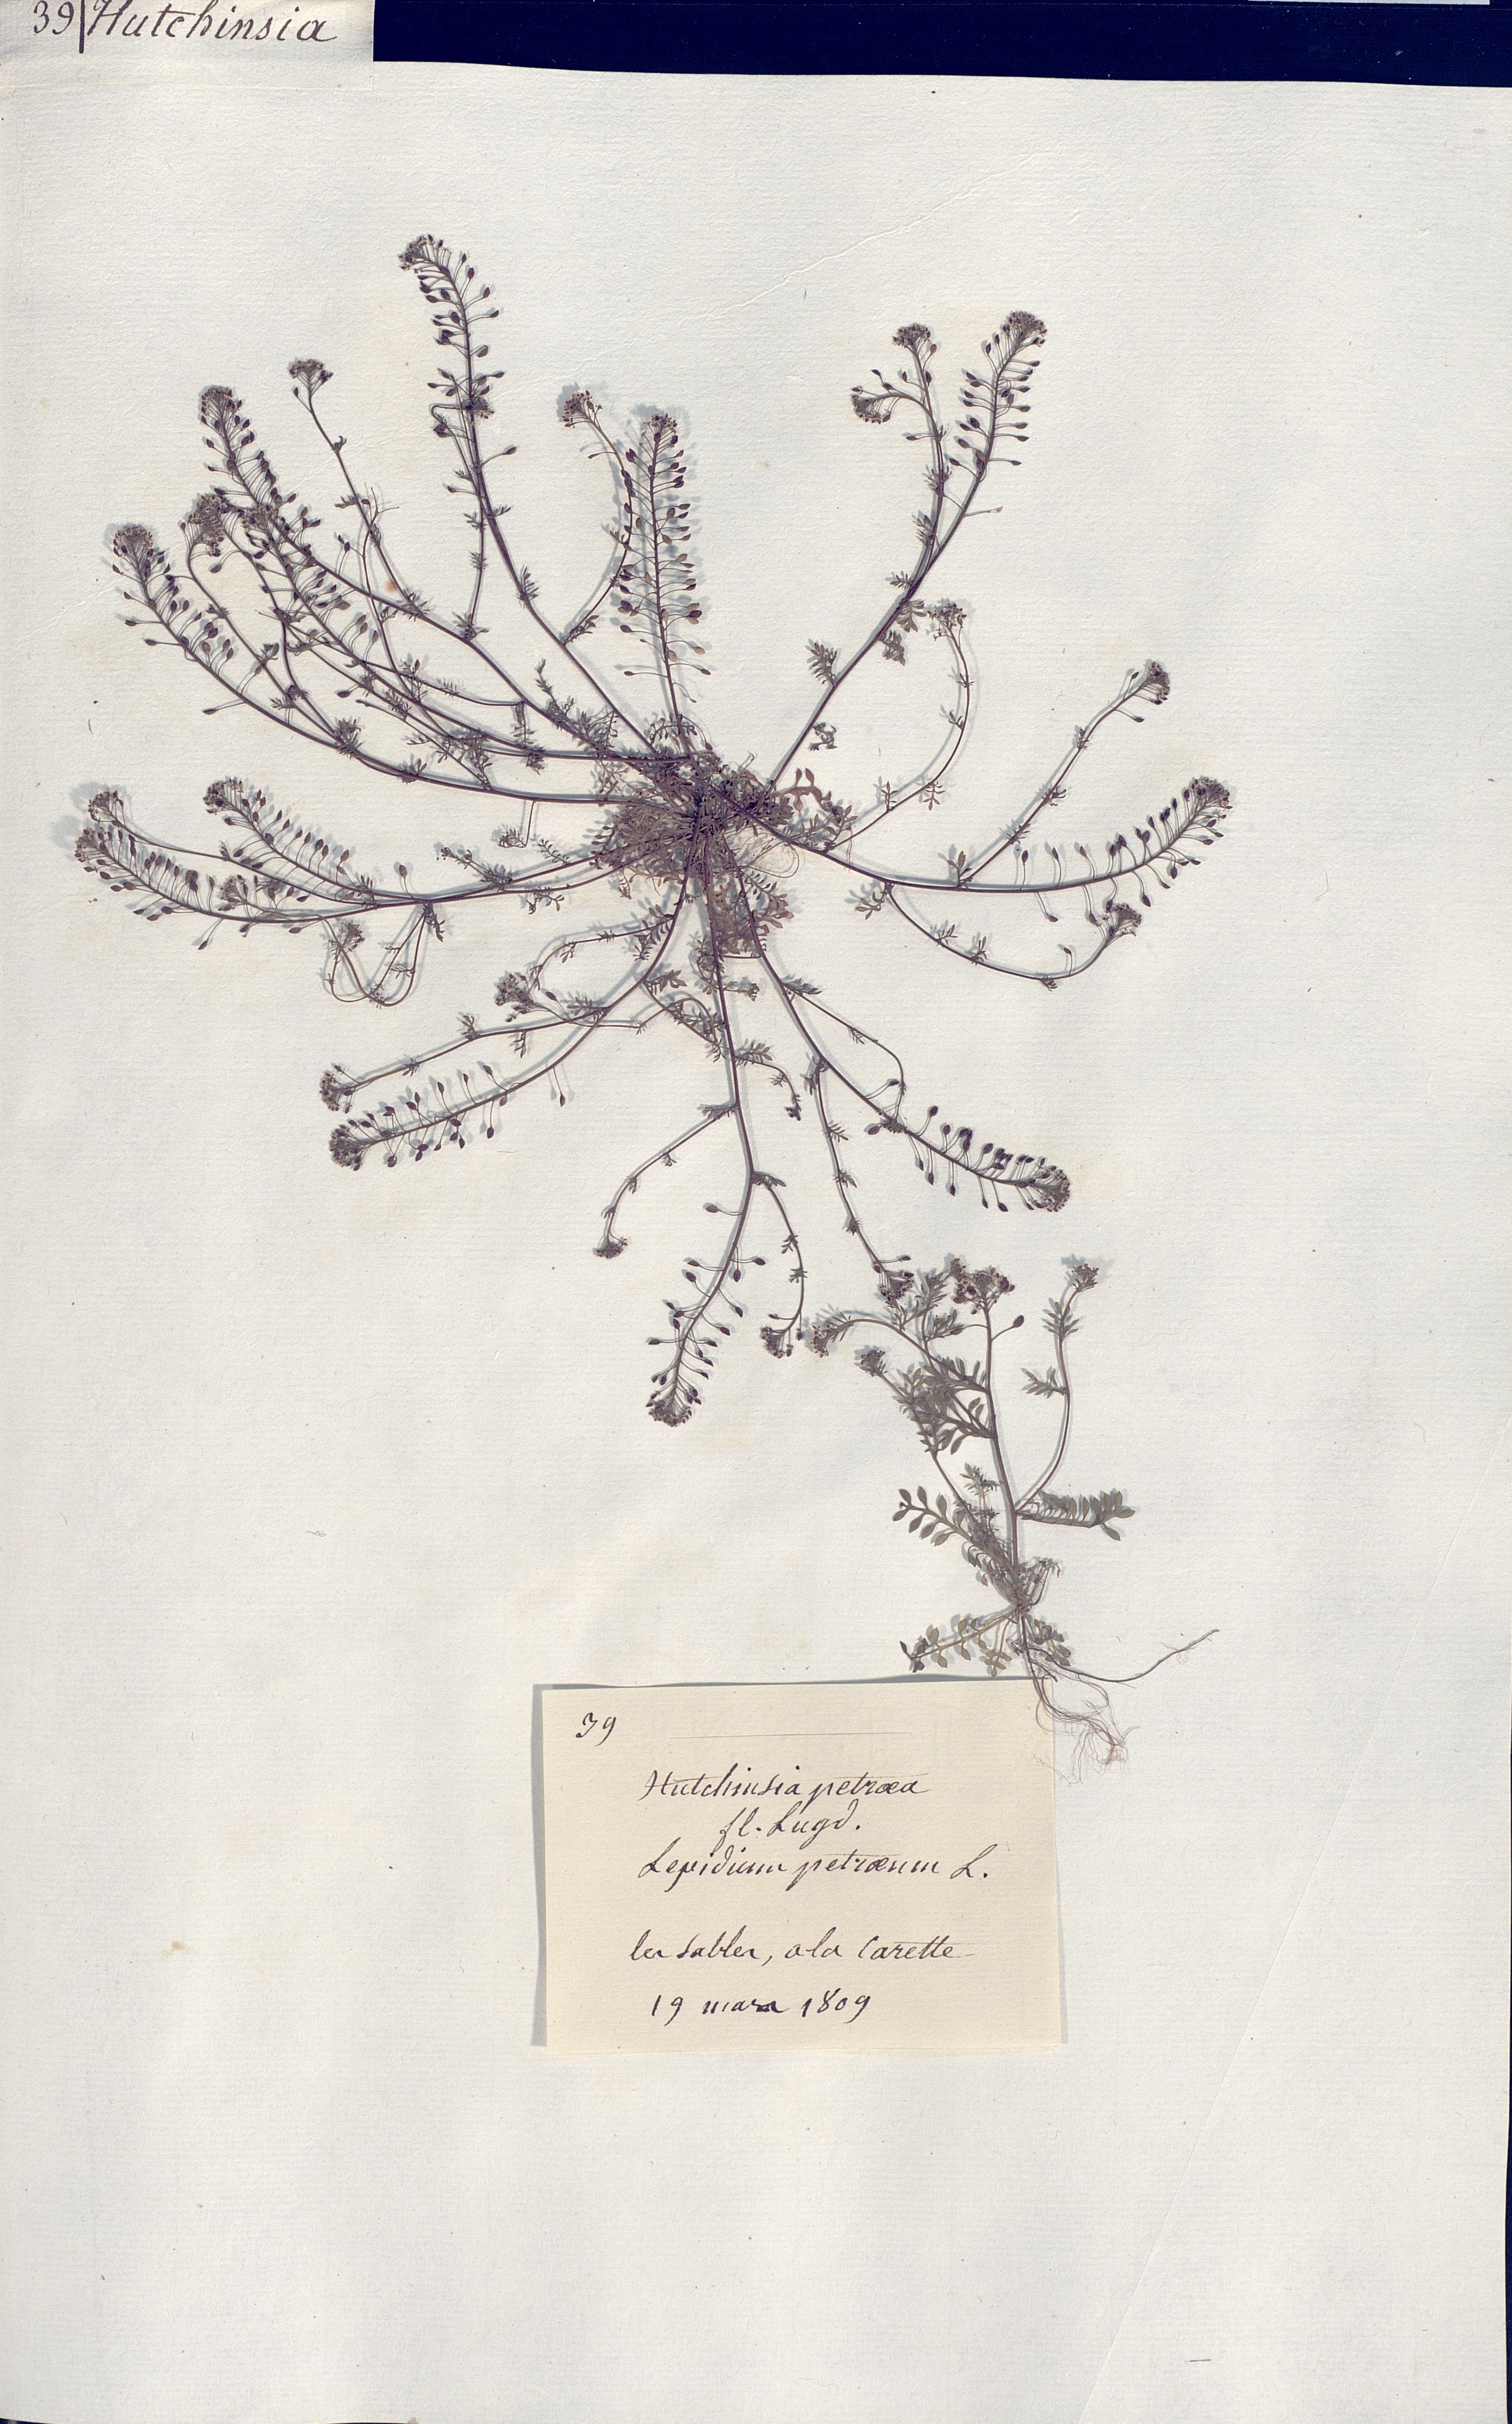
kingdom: Plantae
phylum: Tracheophyta
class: Magnoliopsida
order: Brassicales
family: Brassicaceae
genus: Hornungia
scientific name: Hornungia petraea
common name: Hutchinsia
